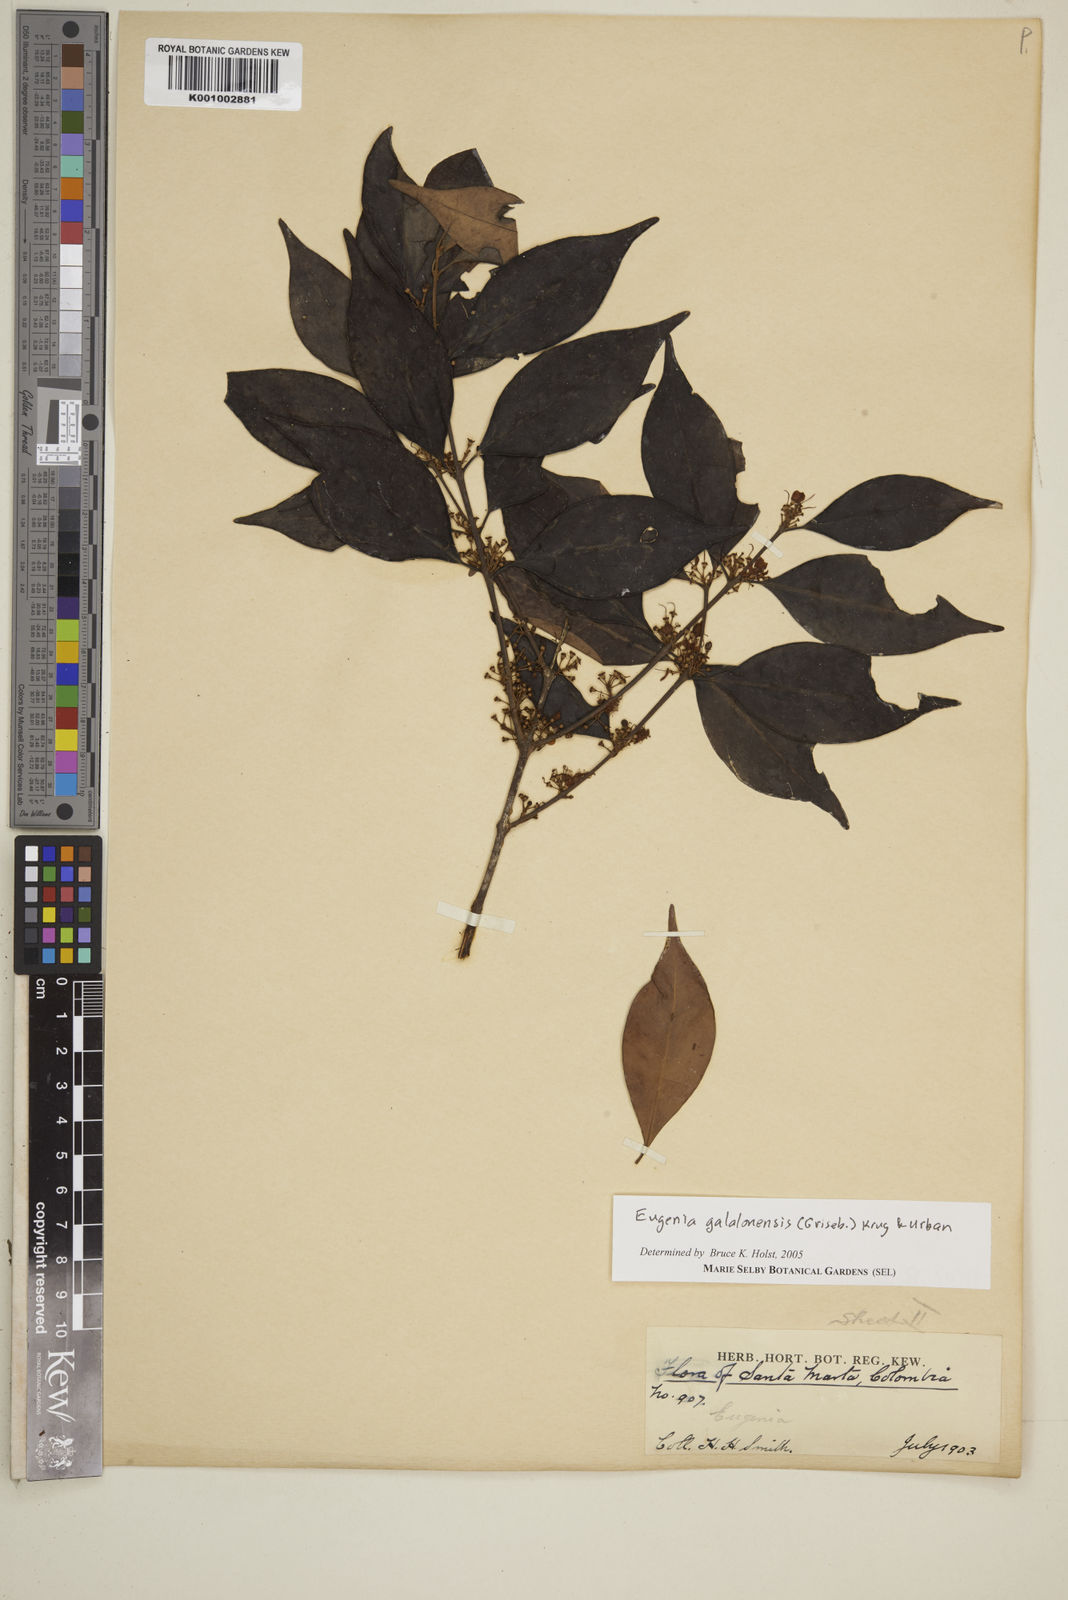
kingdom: Plantae
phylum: Tracheophyta
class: Magnoliopsida
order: Myrtales
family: Myrtaceae
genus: Eugenia
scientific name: Eugenia galalonensis
